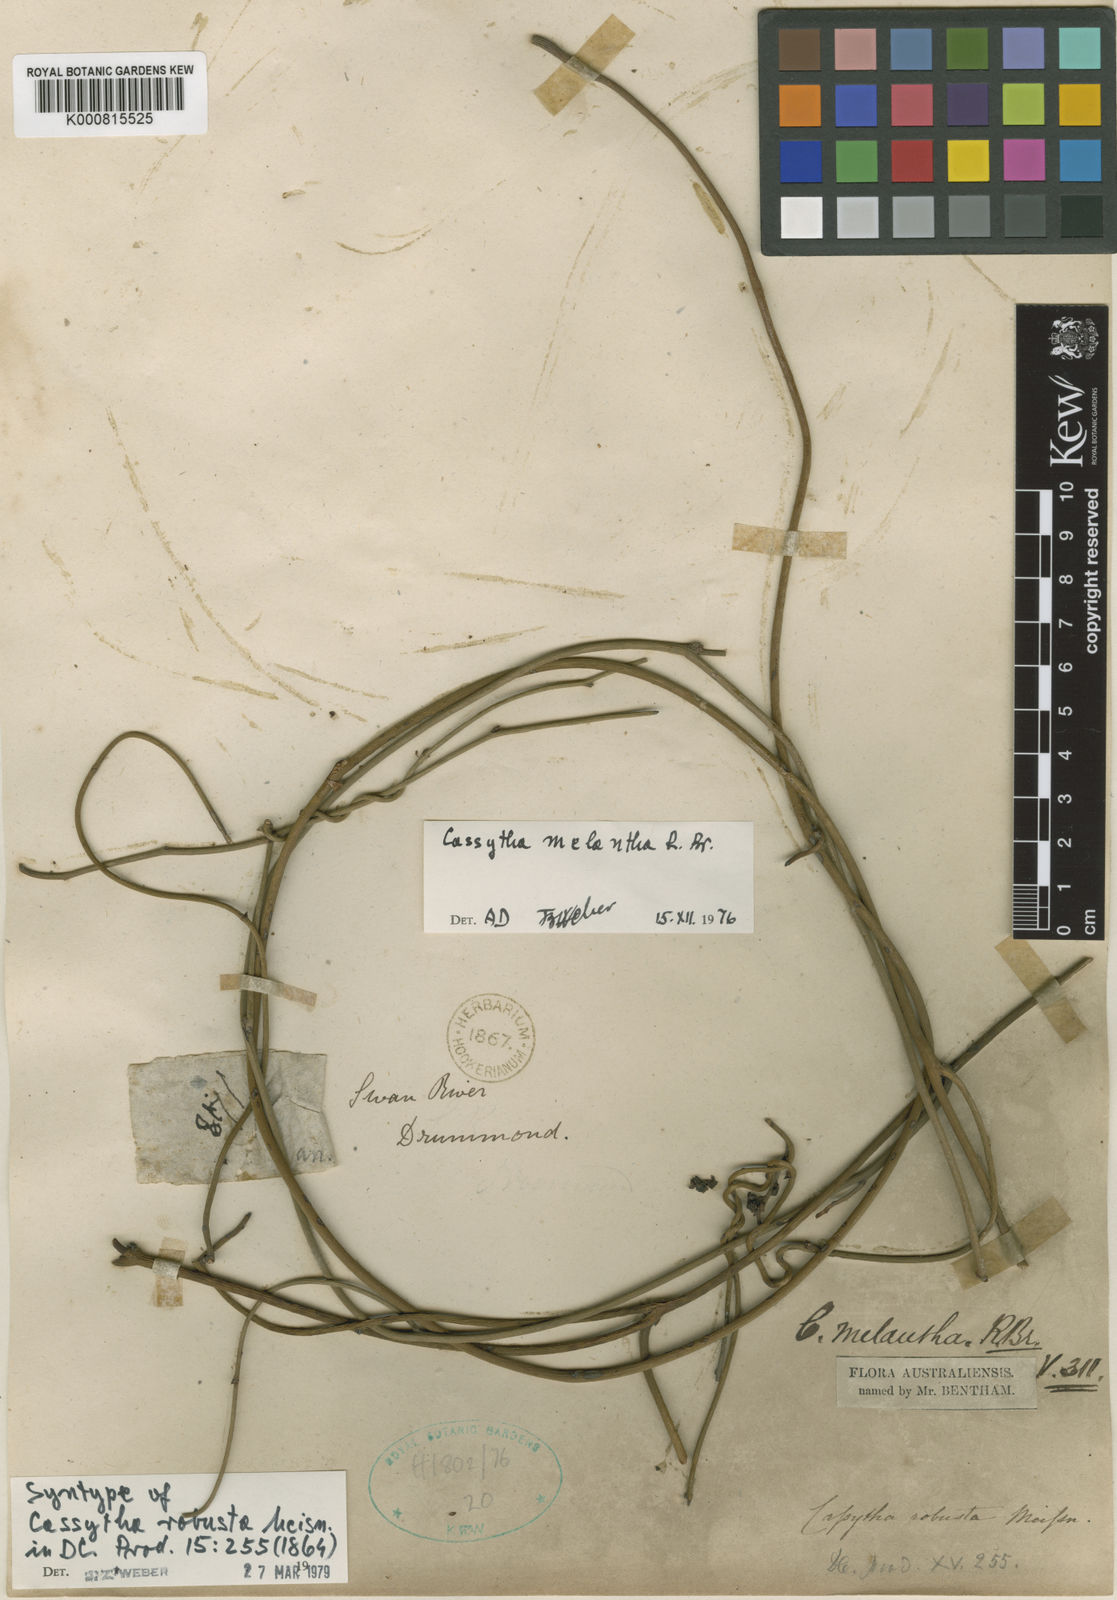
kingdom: Plantae
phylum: Tracheophyta
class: Magnoliopsida
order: Laurales
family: Lauraceae
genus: Cassytha
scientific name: Cassytha melantha
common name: Mallee stranglevine
